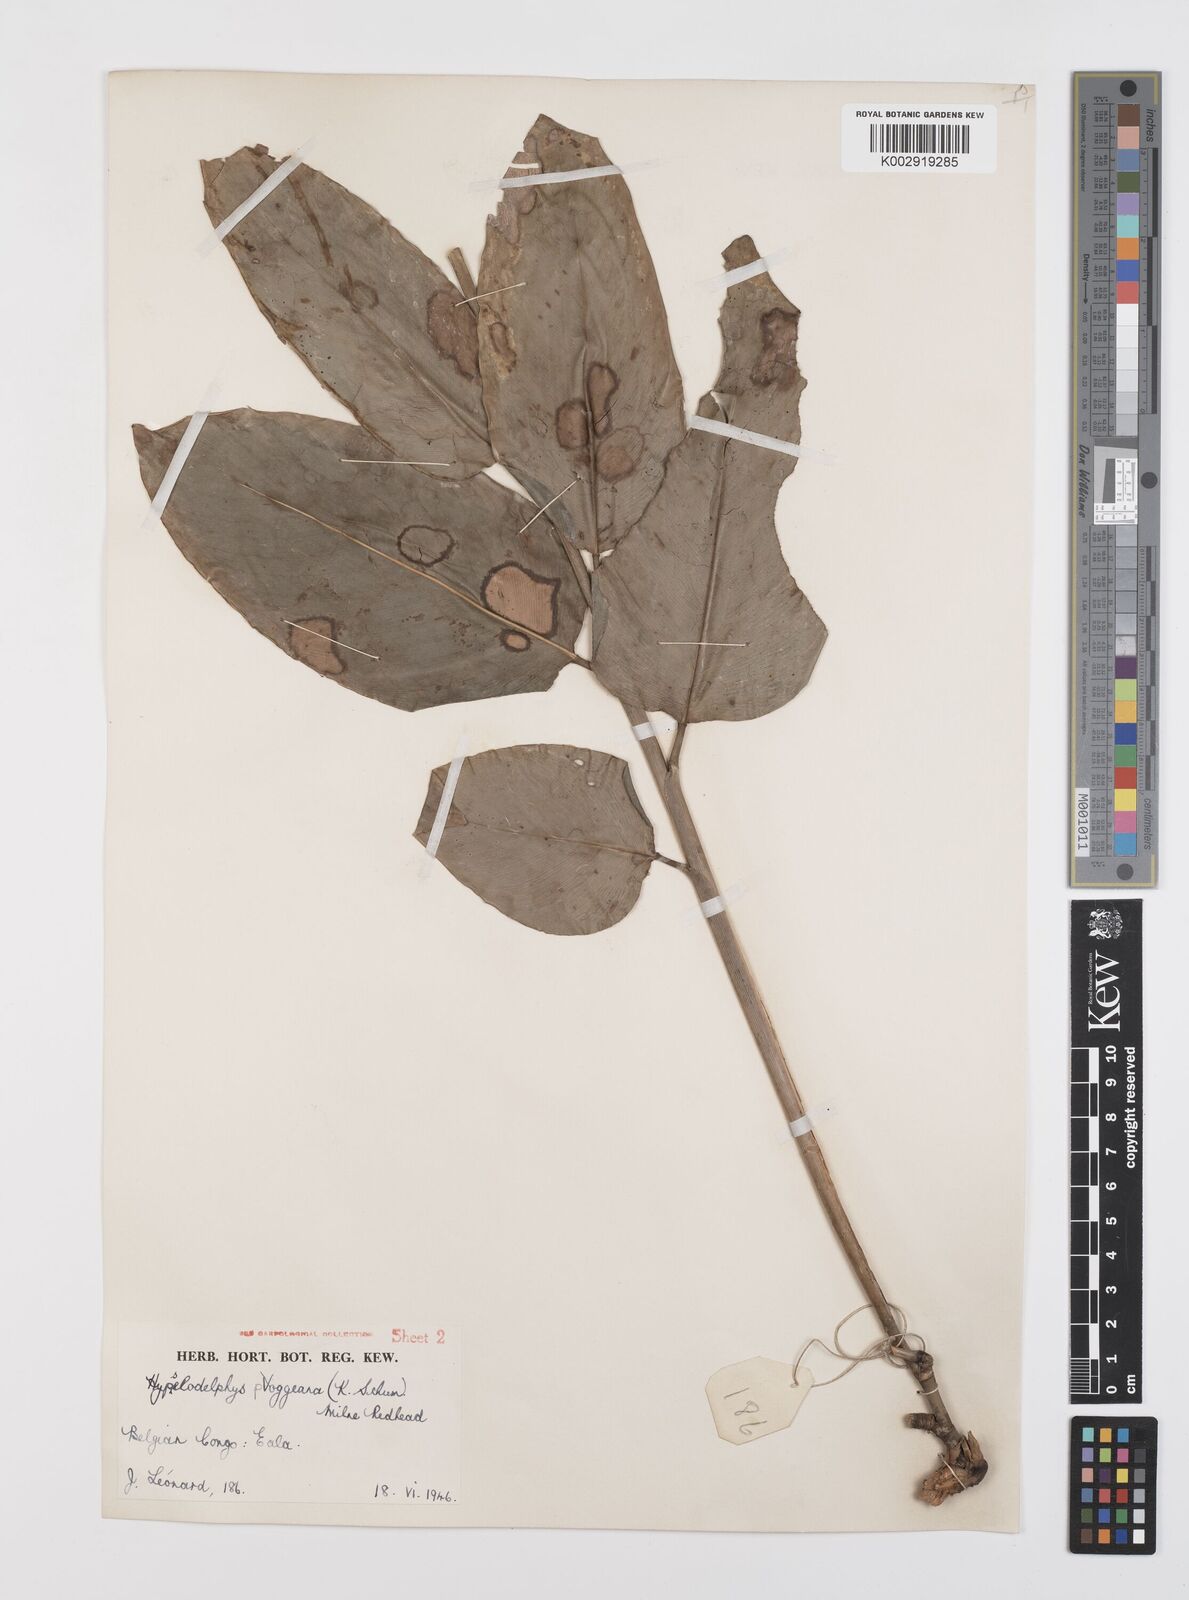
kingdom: Plantae
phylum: Tracheophyta
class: Liliopsida
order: Zingiberales
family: Marantaceae
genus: Hypselodelphys
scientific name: Hypselodelphys poggeana
